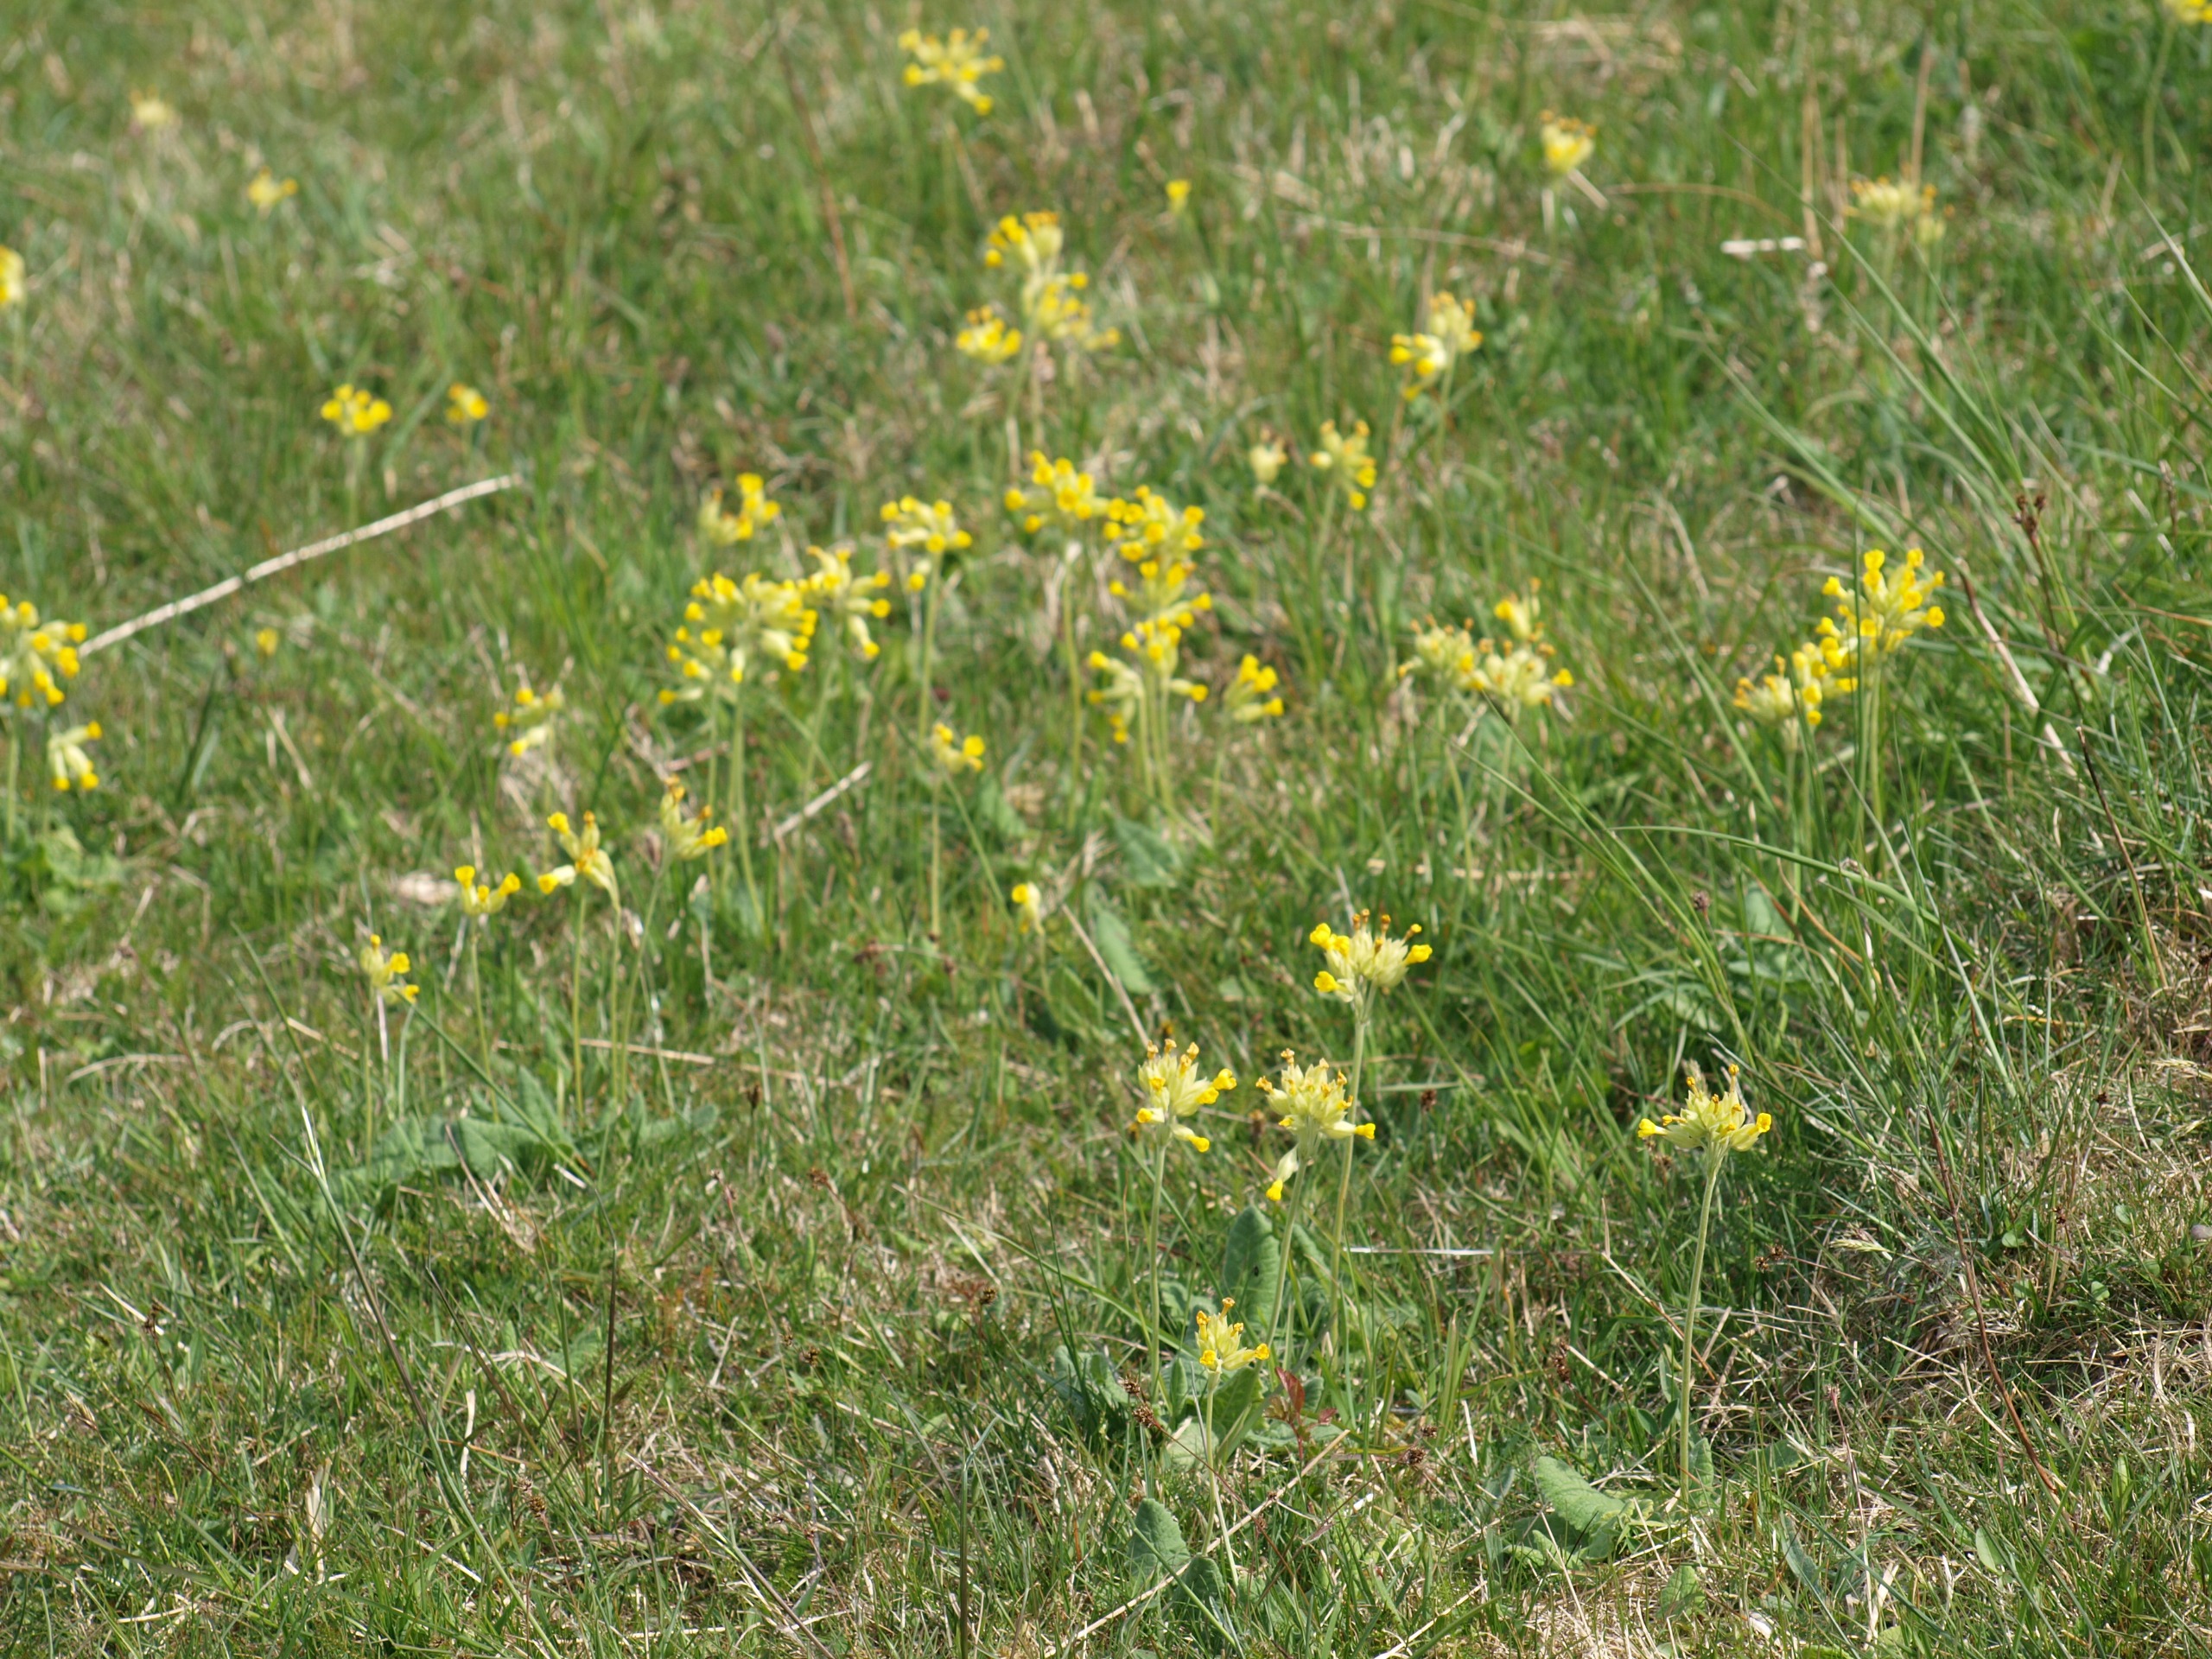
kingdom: Plantae
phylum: Tracheophyta
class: Magnoliopsida
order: Ericales
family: Primulaceae
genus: Primula
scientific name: Primula veris
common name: Hulkravet kodriver
